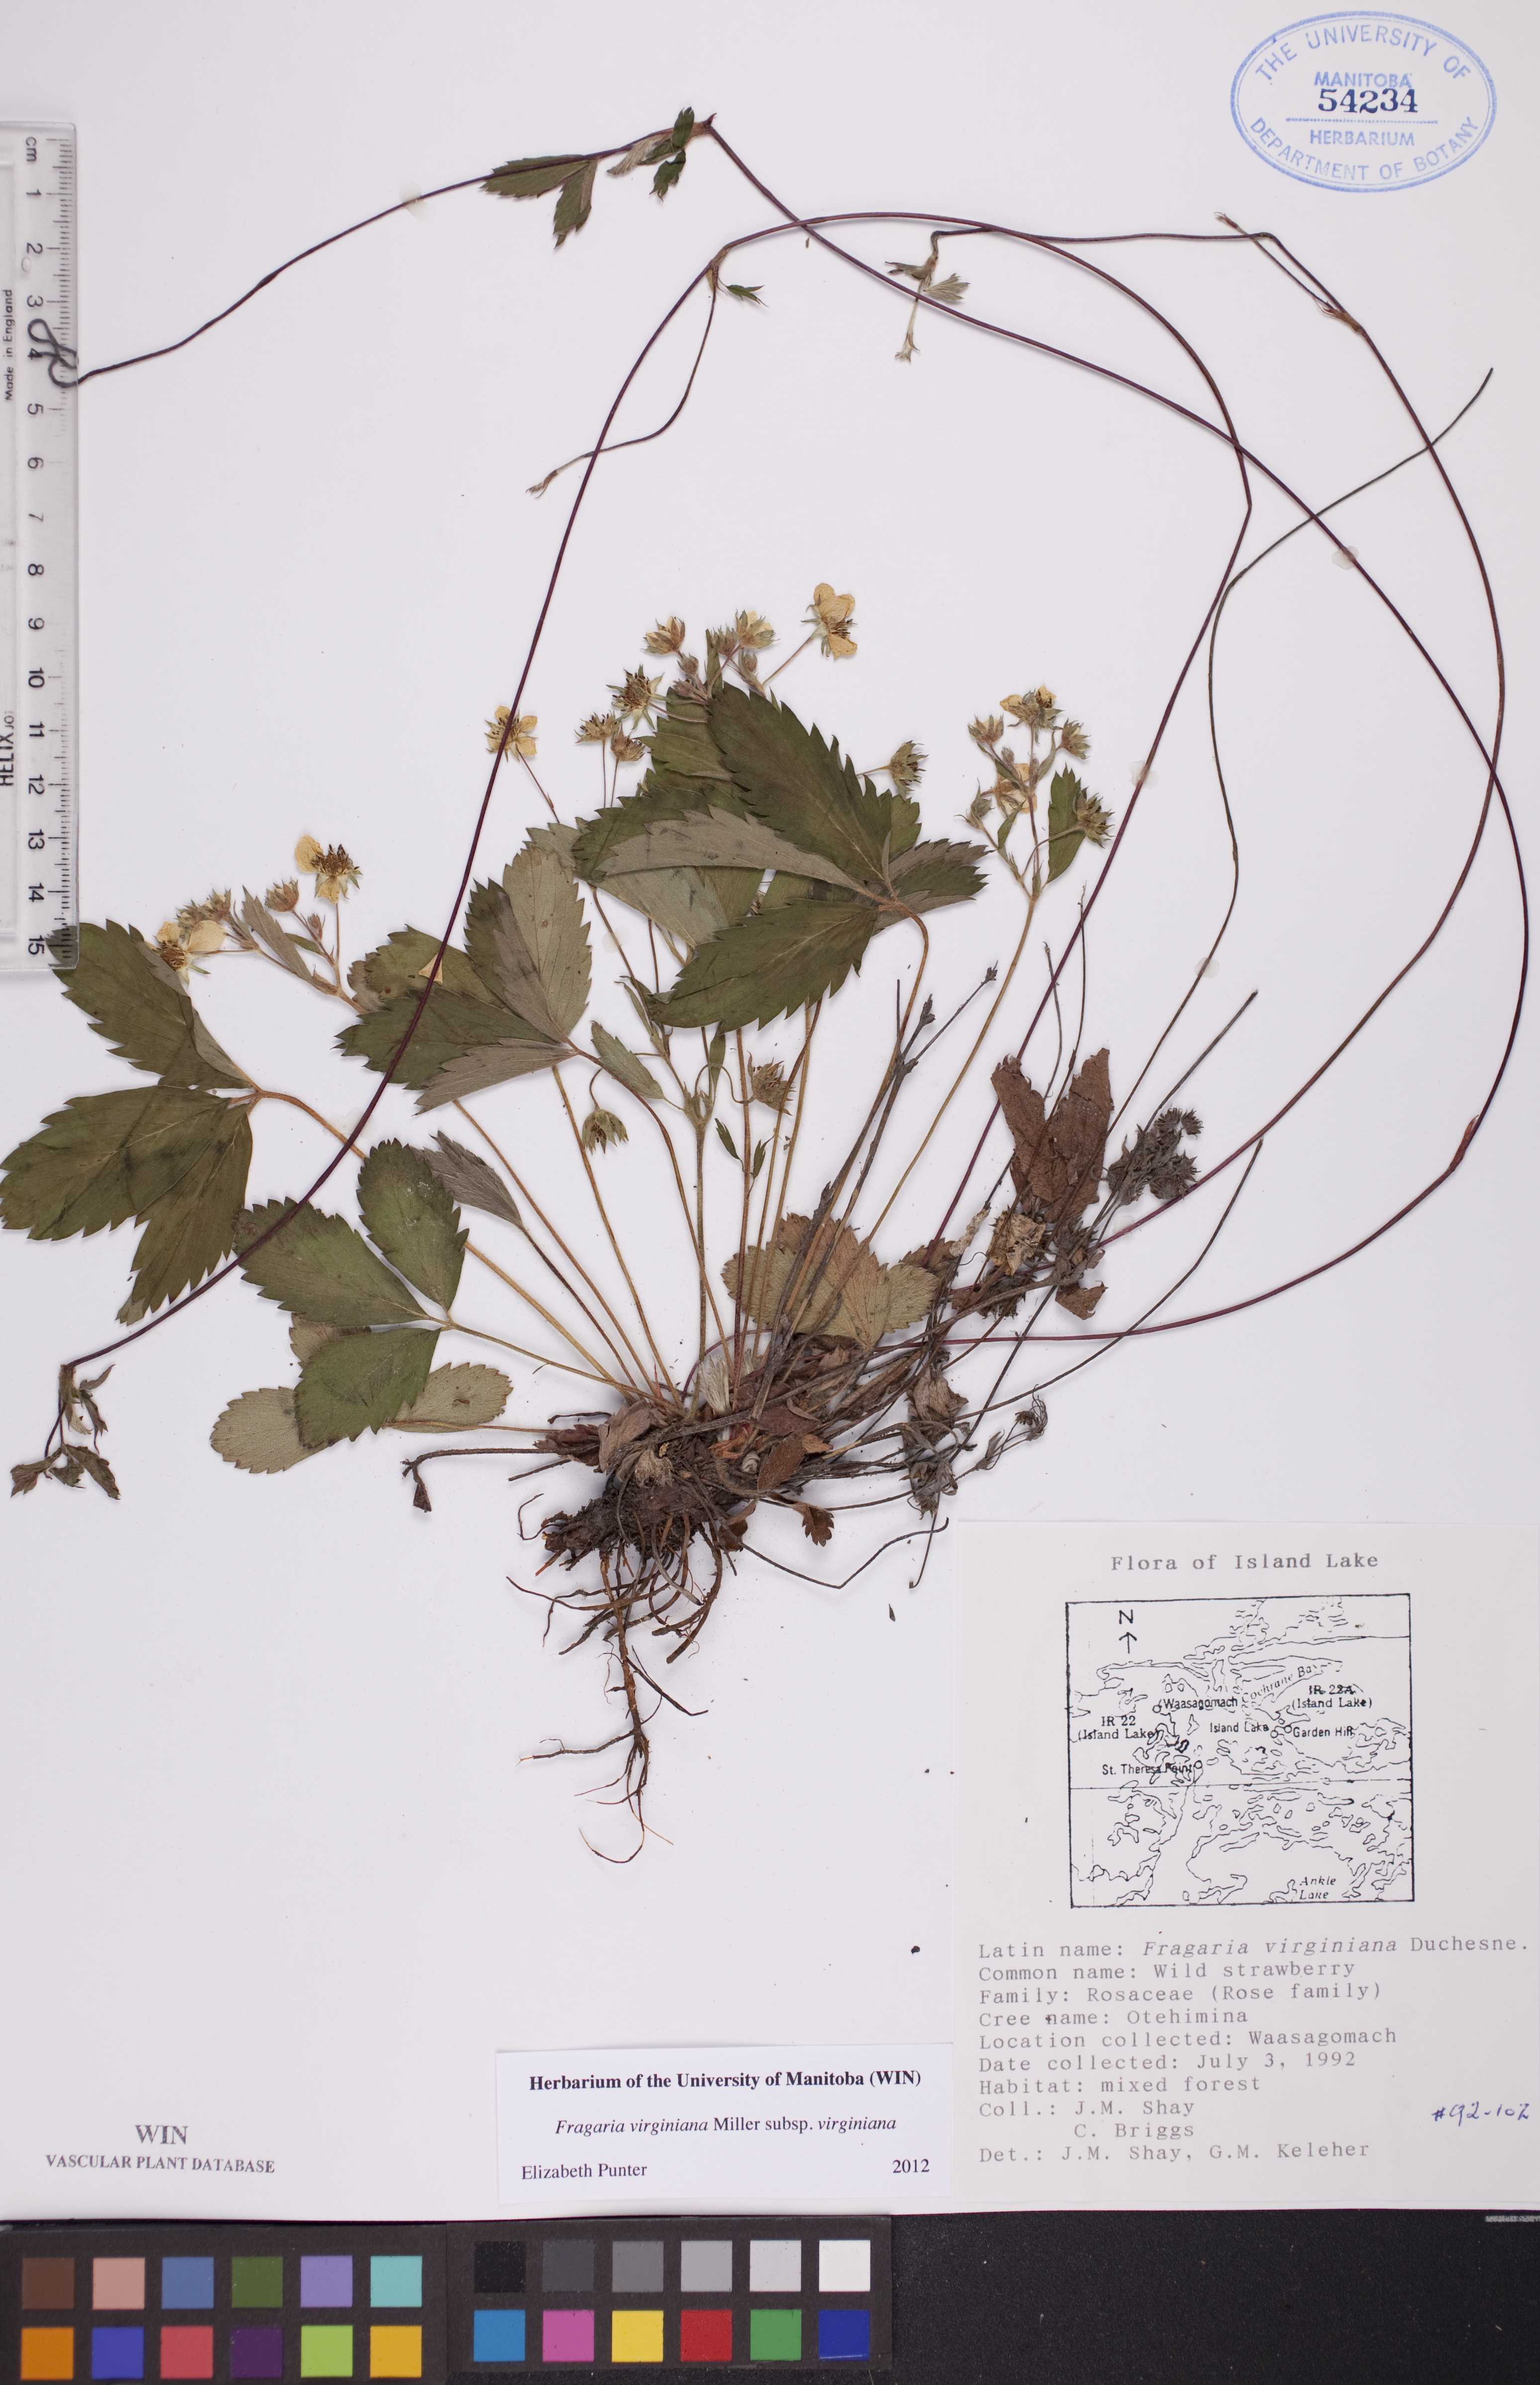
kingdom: Plantae
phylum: Tracheophyta
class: Magnoliopsida
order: Rosales
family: Rosaceae
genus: Fragaria
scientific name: Fragaria virginiana
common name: Thickleaved wild strawberry
